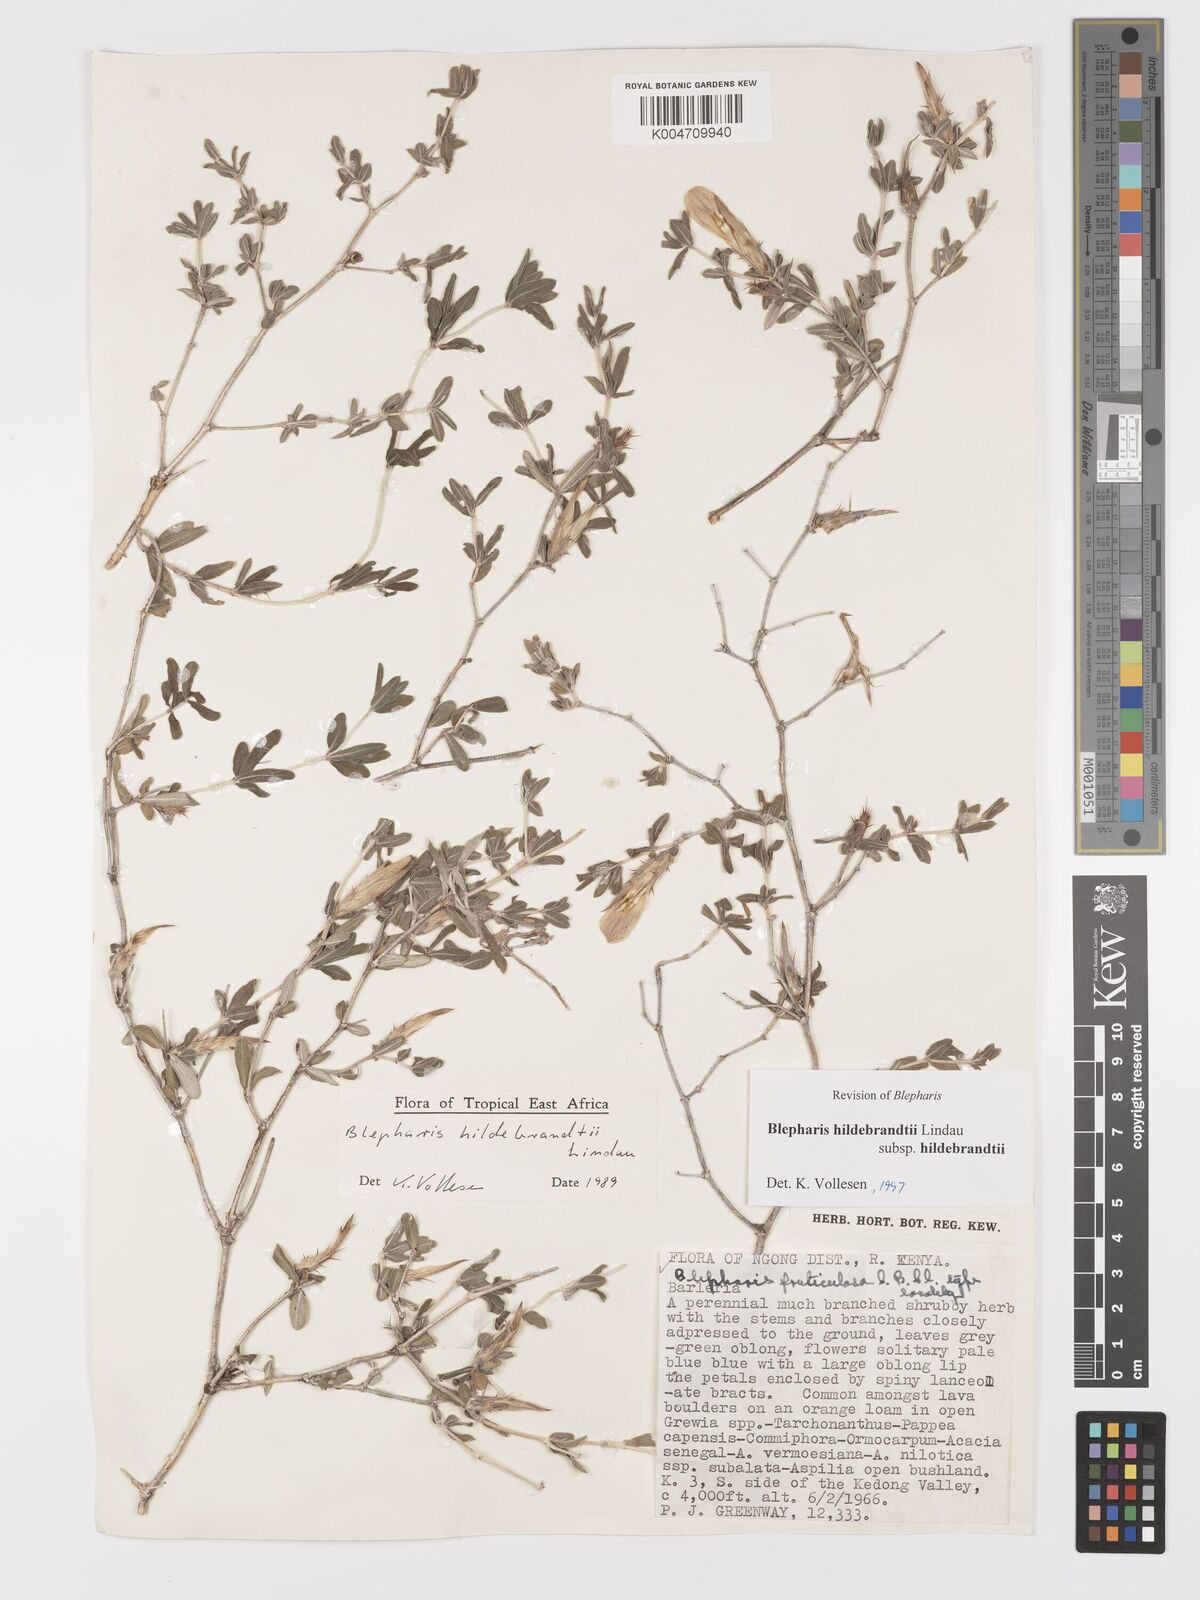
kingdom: Plantae
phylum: Tracheophyta
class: Magnoliopsida
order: Lamiales
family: Acanthaceae
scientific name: Acanthaceae
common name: Acanthaceae
